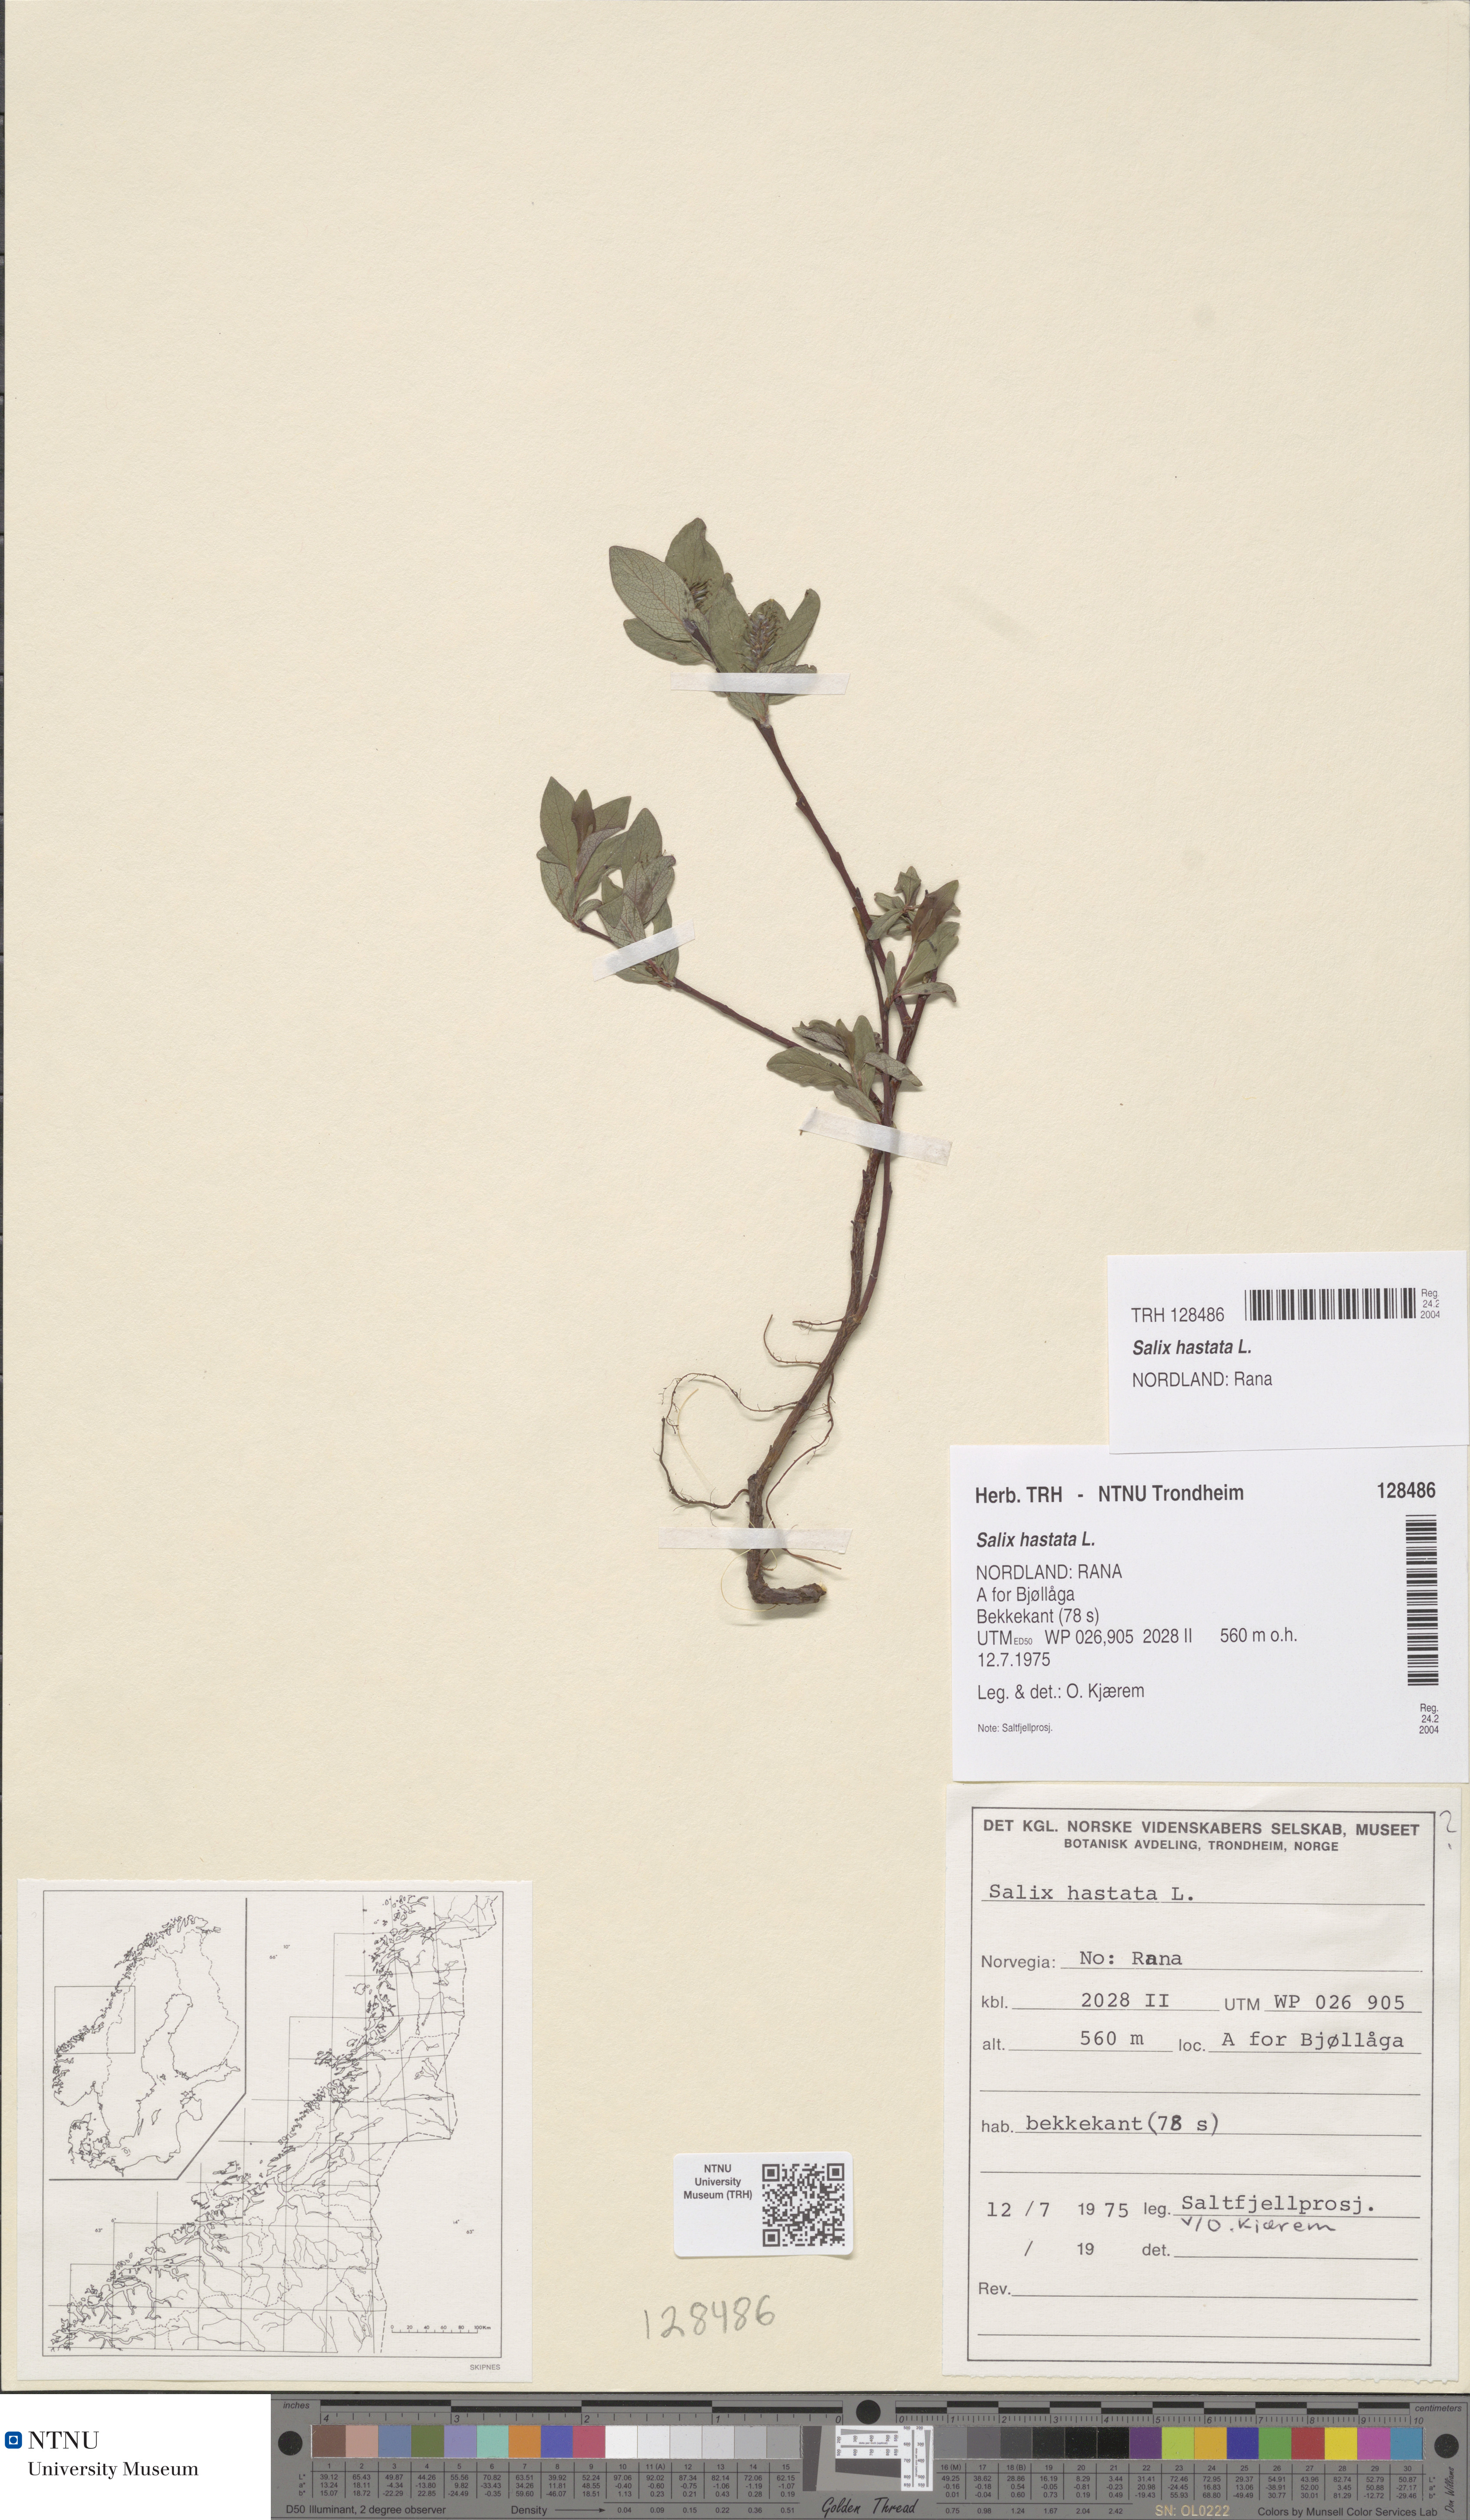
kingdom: Plantae
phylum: Tracheophyta
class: Magnoliopsida
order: Malpighiales
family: Salicaceae
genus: Salix
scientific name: Salix hastata
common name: Halberd willow
